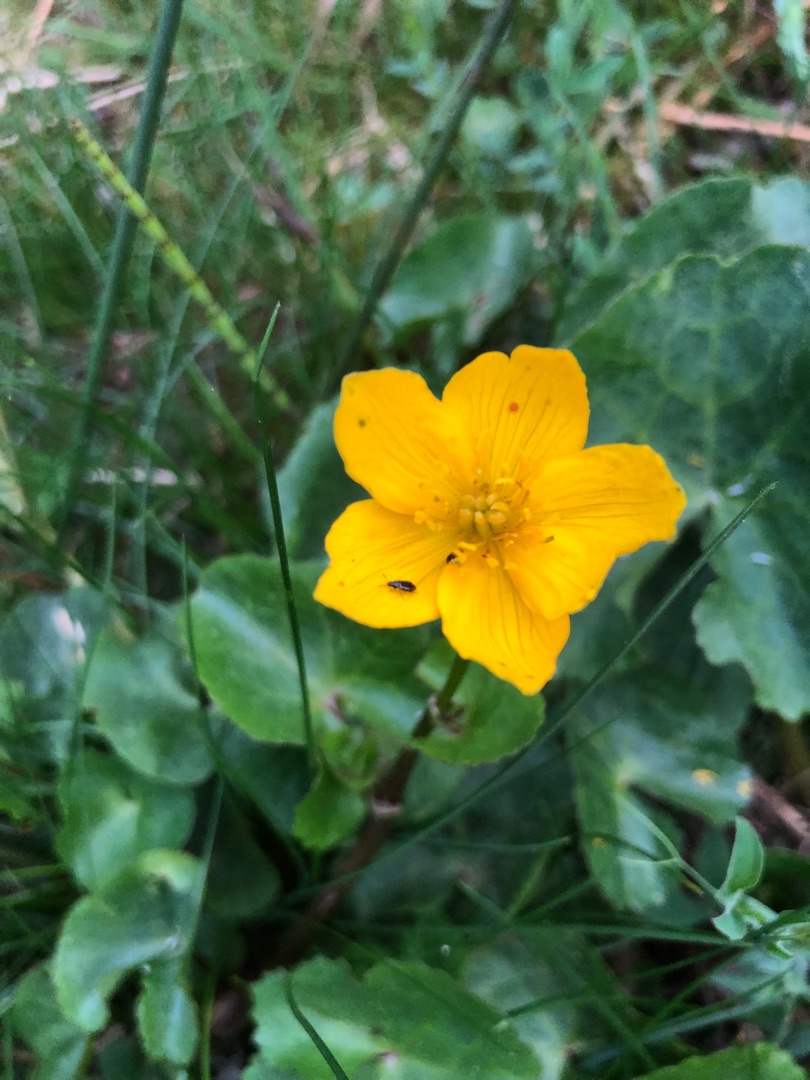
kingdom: Plantae
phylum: Tracheophyta
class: Magnoliopsida
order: Ranunculales
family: Ranunculaceae
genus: Caltha
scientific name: Caltha palustris
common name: Eng-kabbeleje
